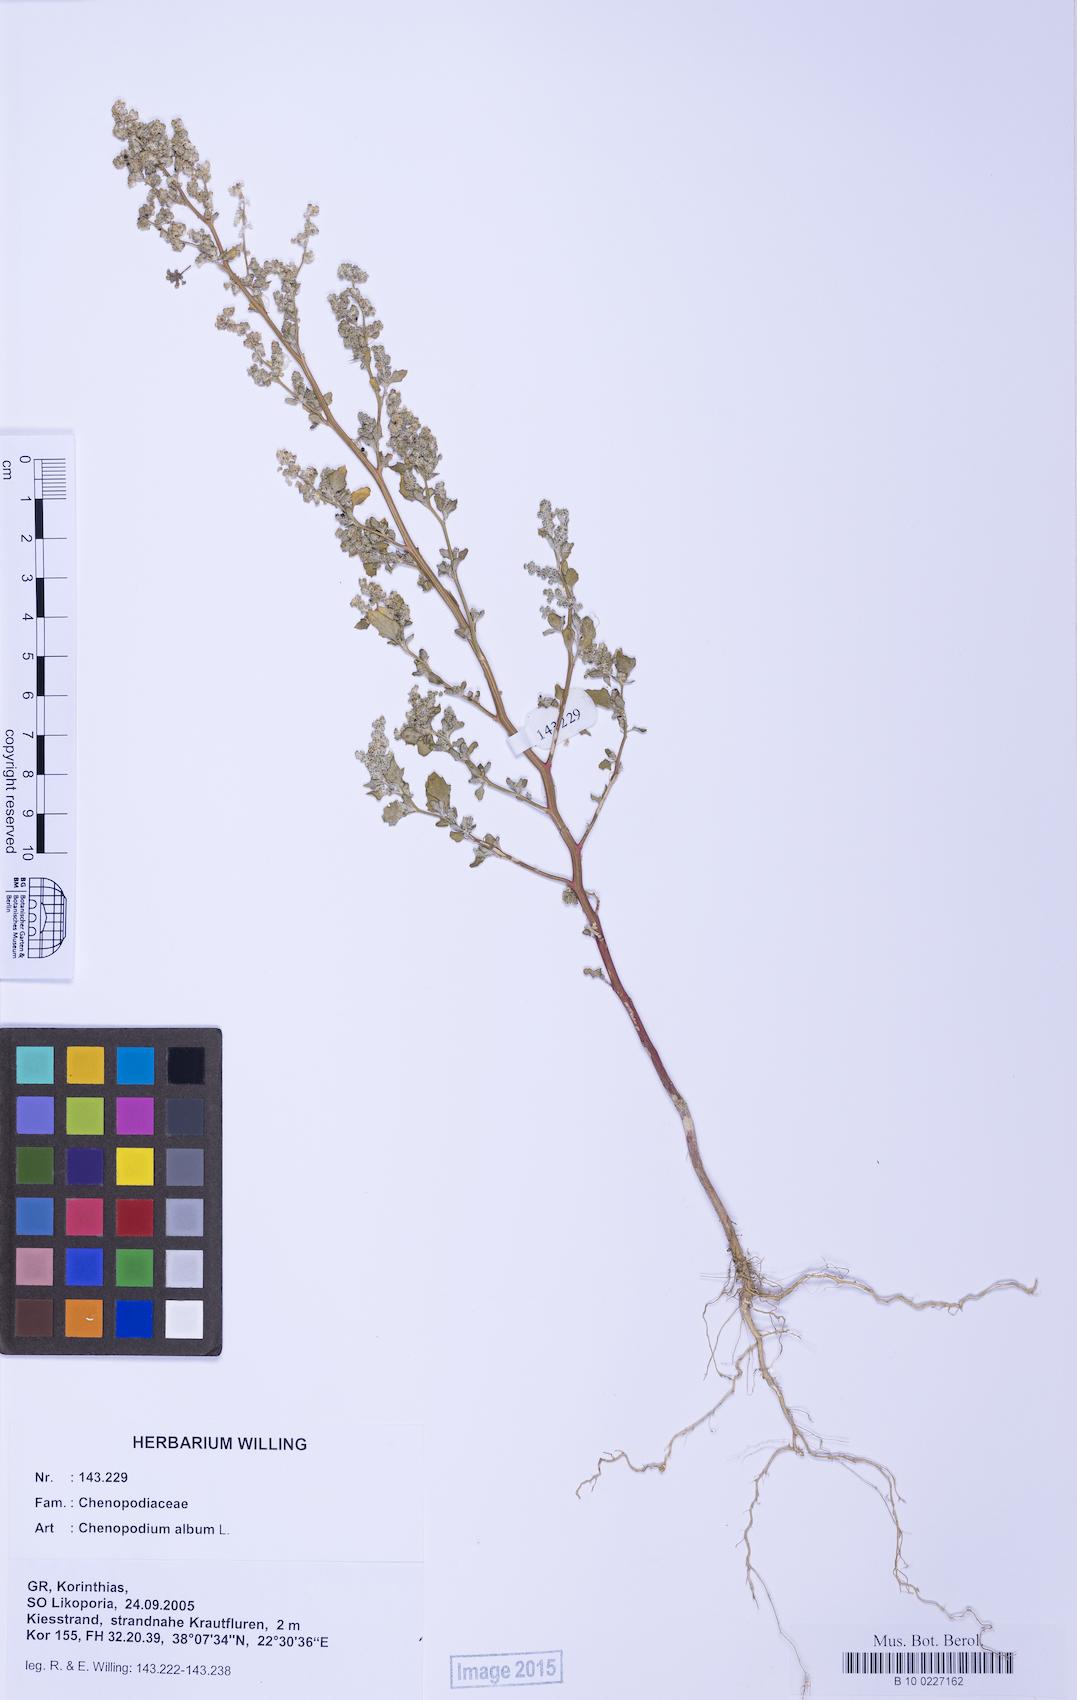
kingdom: Plantae
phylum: Tracheophyta
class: Magnoliopsida
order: Caryophyllales
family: Amaranthaceae
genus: Chenopodium
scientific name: Chenopodium album
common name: Fat-hen
